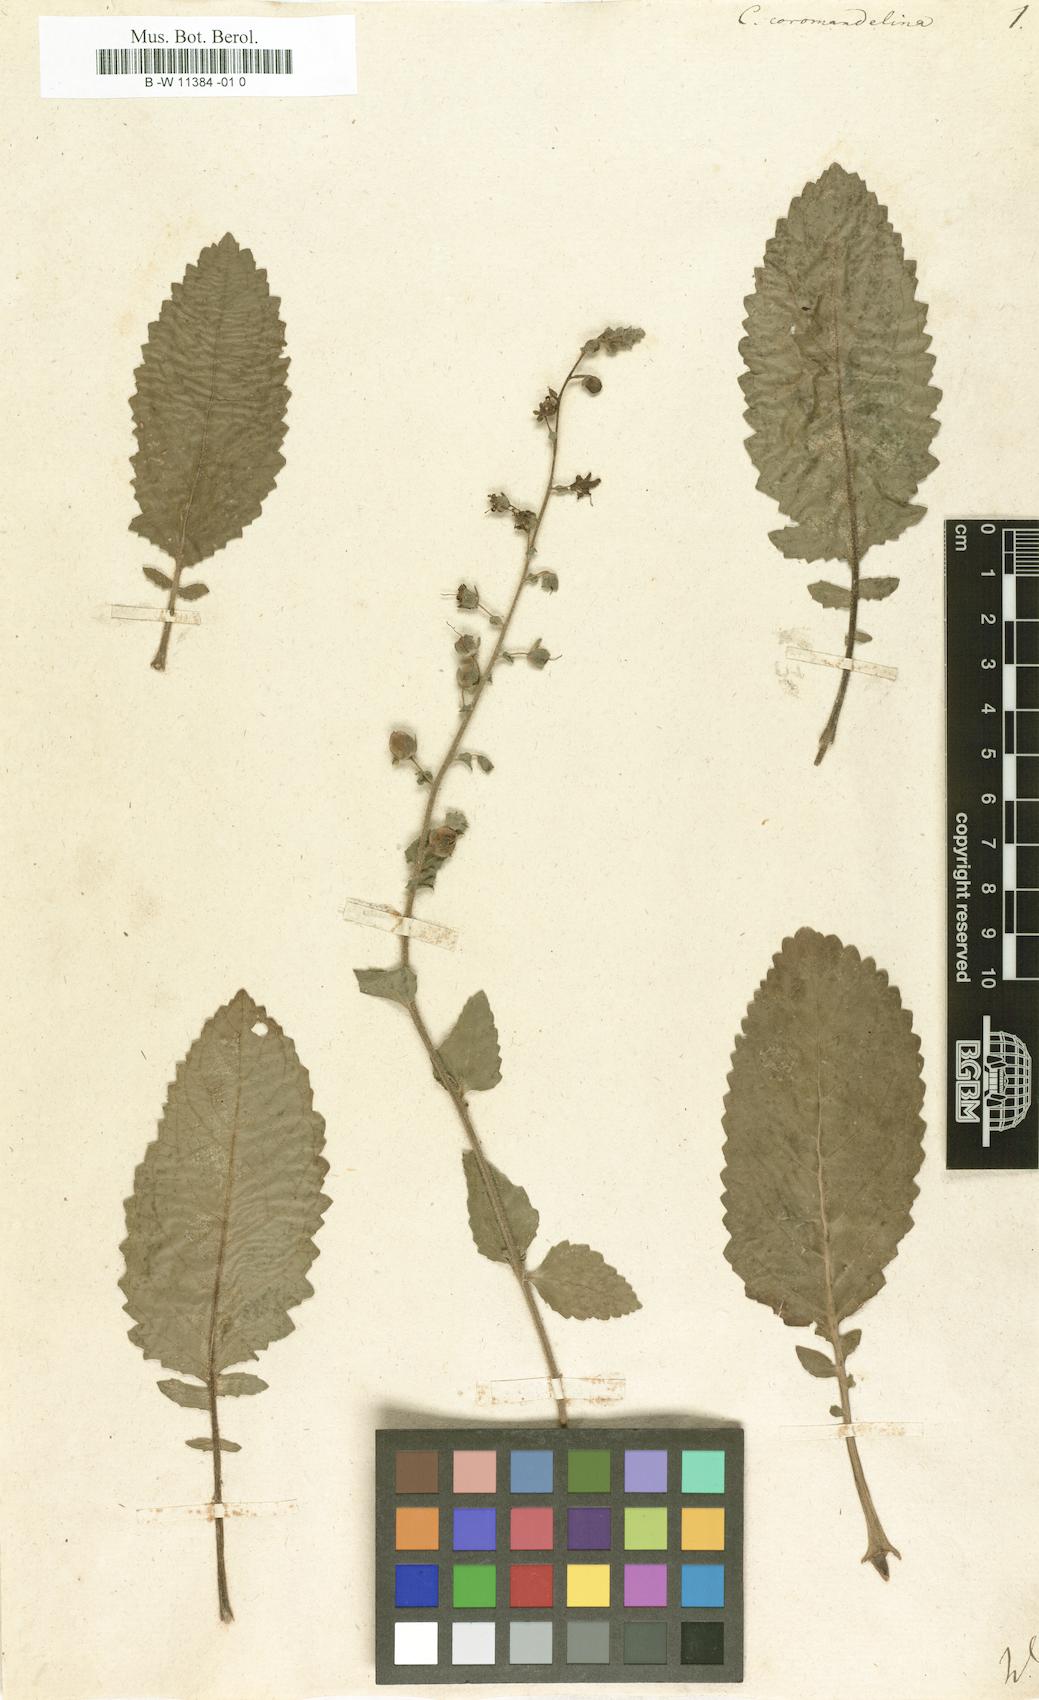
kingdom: Plantae
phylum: Tracheophyta
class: Magnoliopsida
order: Lamiales
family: Scrophulariaceae
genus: Verbascum
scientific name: Verbascum coromandelianum
